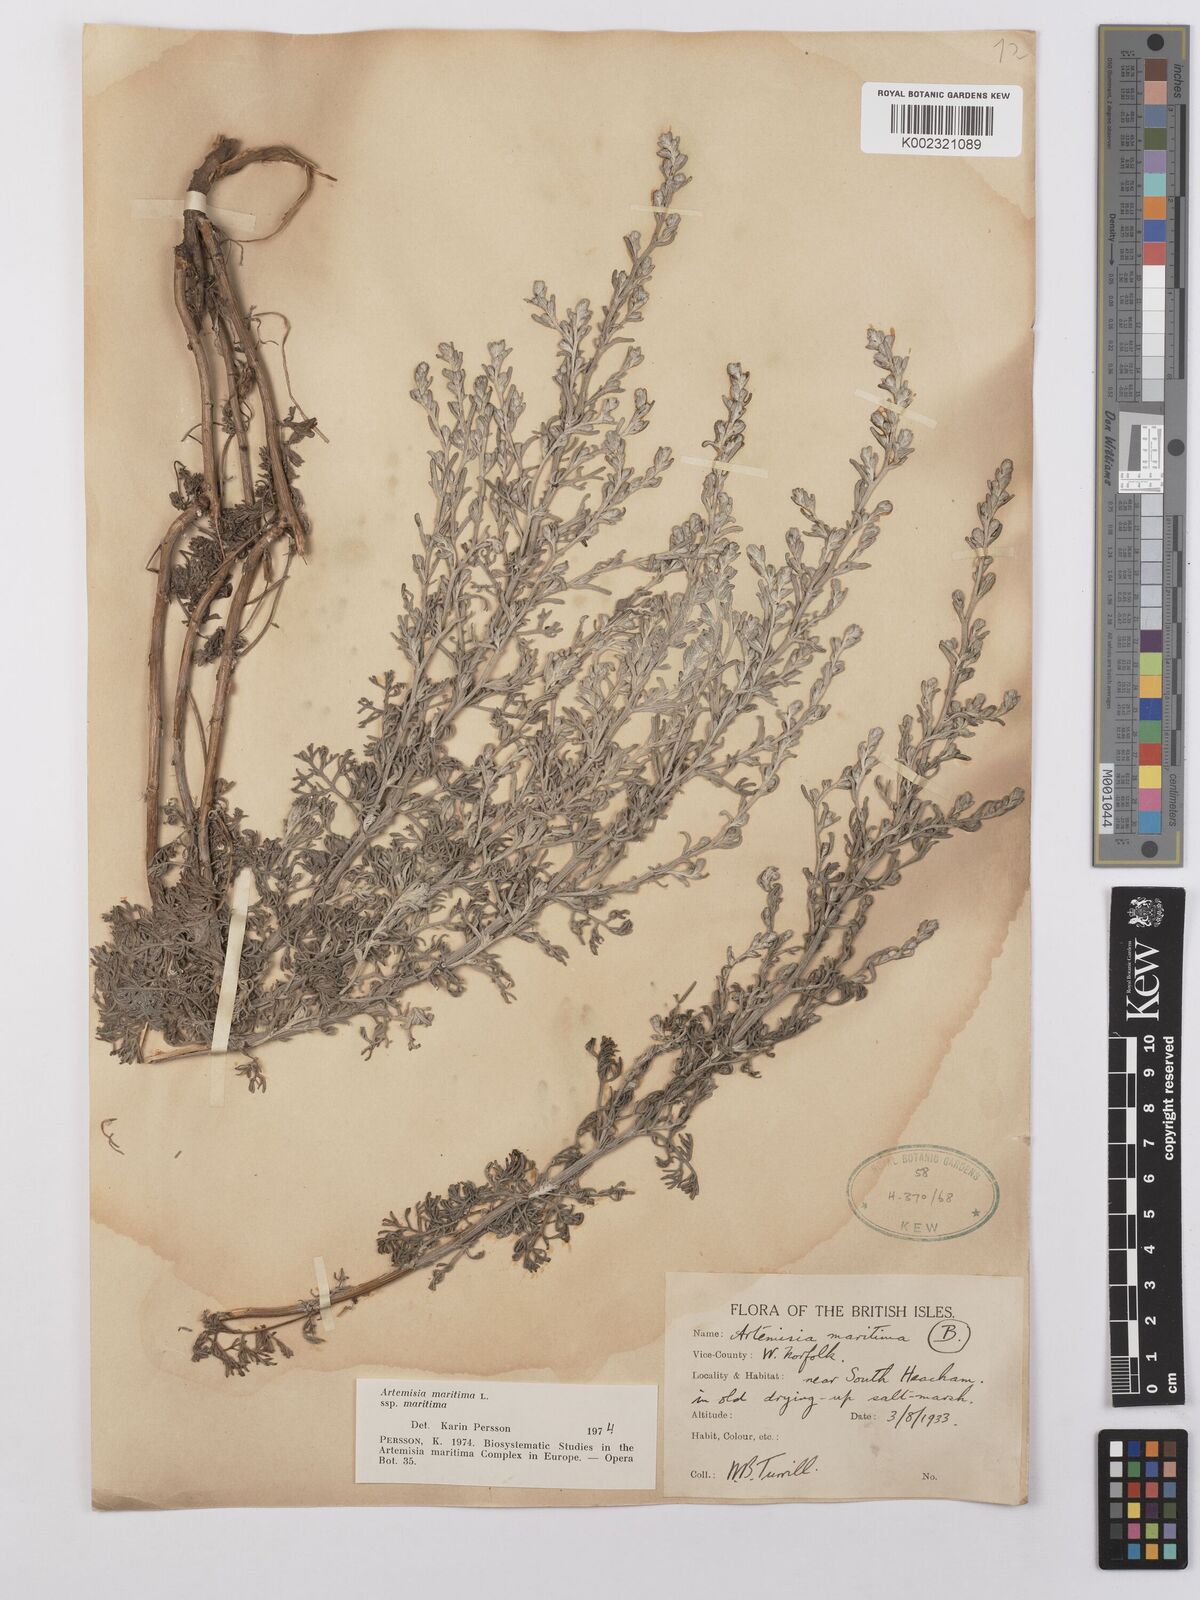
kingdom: Plantae
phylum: Tracheophyta
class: Magnoliopsida
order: Asterales
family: Asteraceae
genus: Artemisia
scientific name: Artemisia maritima
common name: Wormseed
